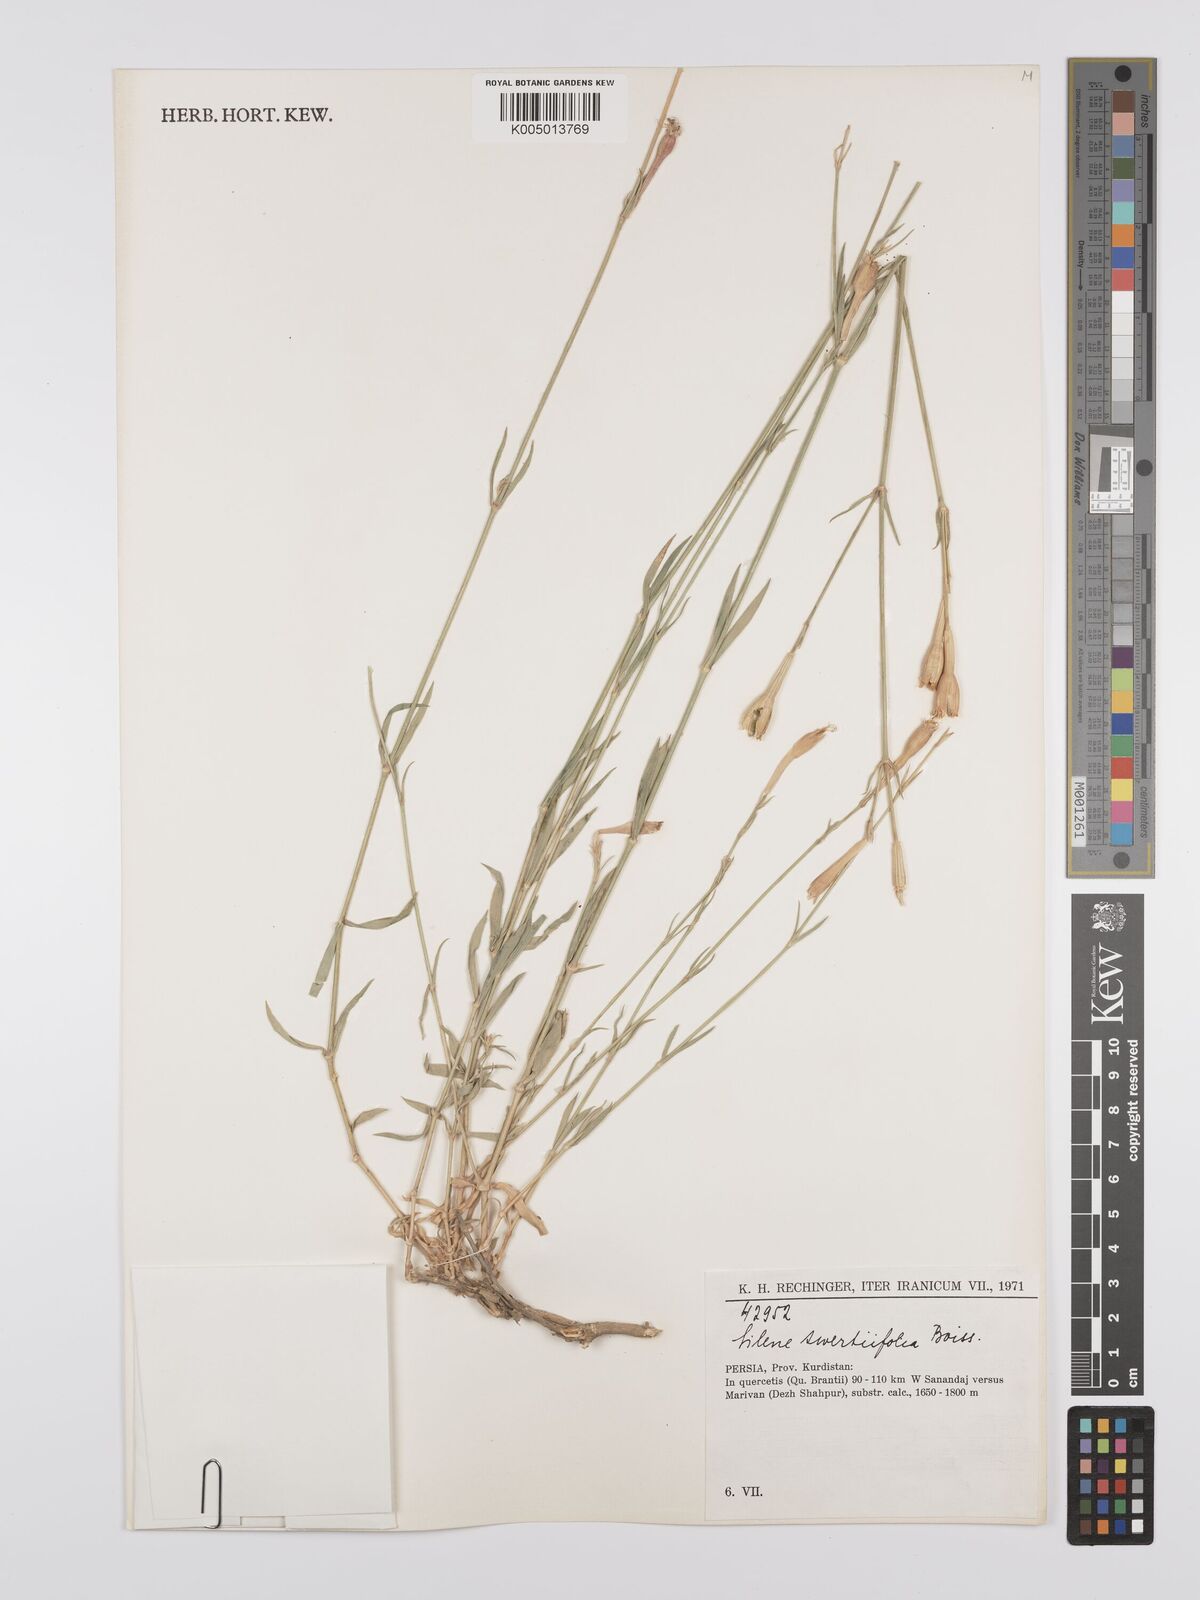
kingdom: Plantae
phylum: Tracheophyta
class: Magnoliopsida
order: Caryophyllales
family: Caryophyllaceae
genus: Silene
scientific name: Silene swertiifolia
